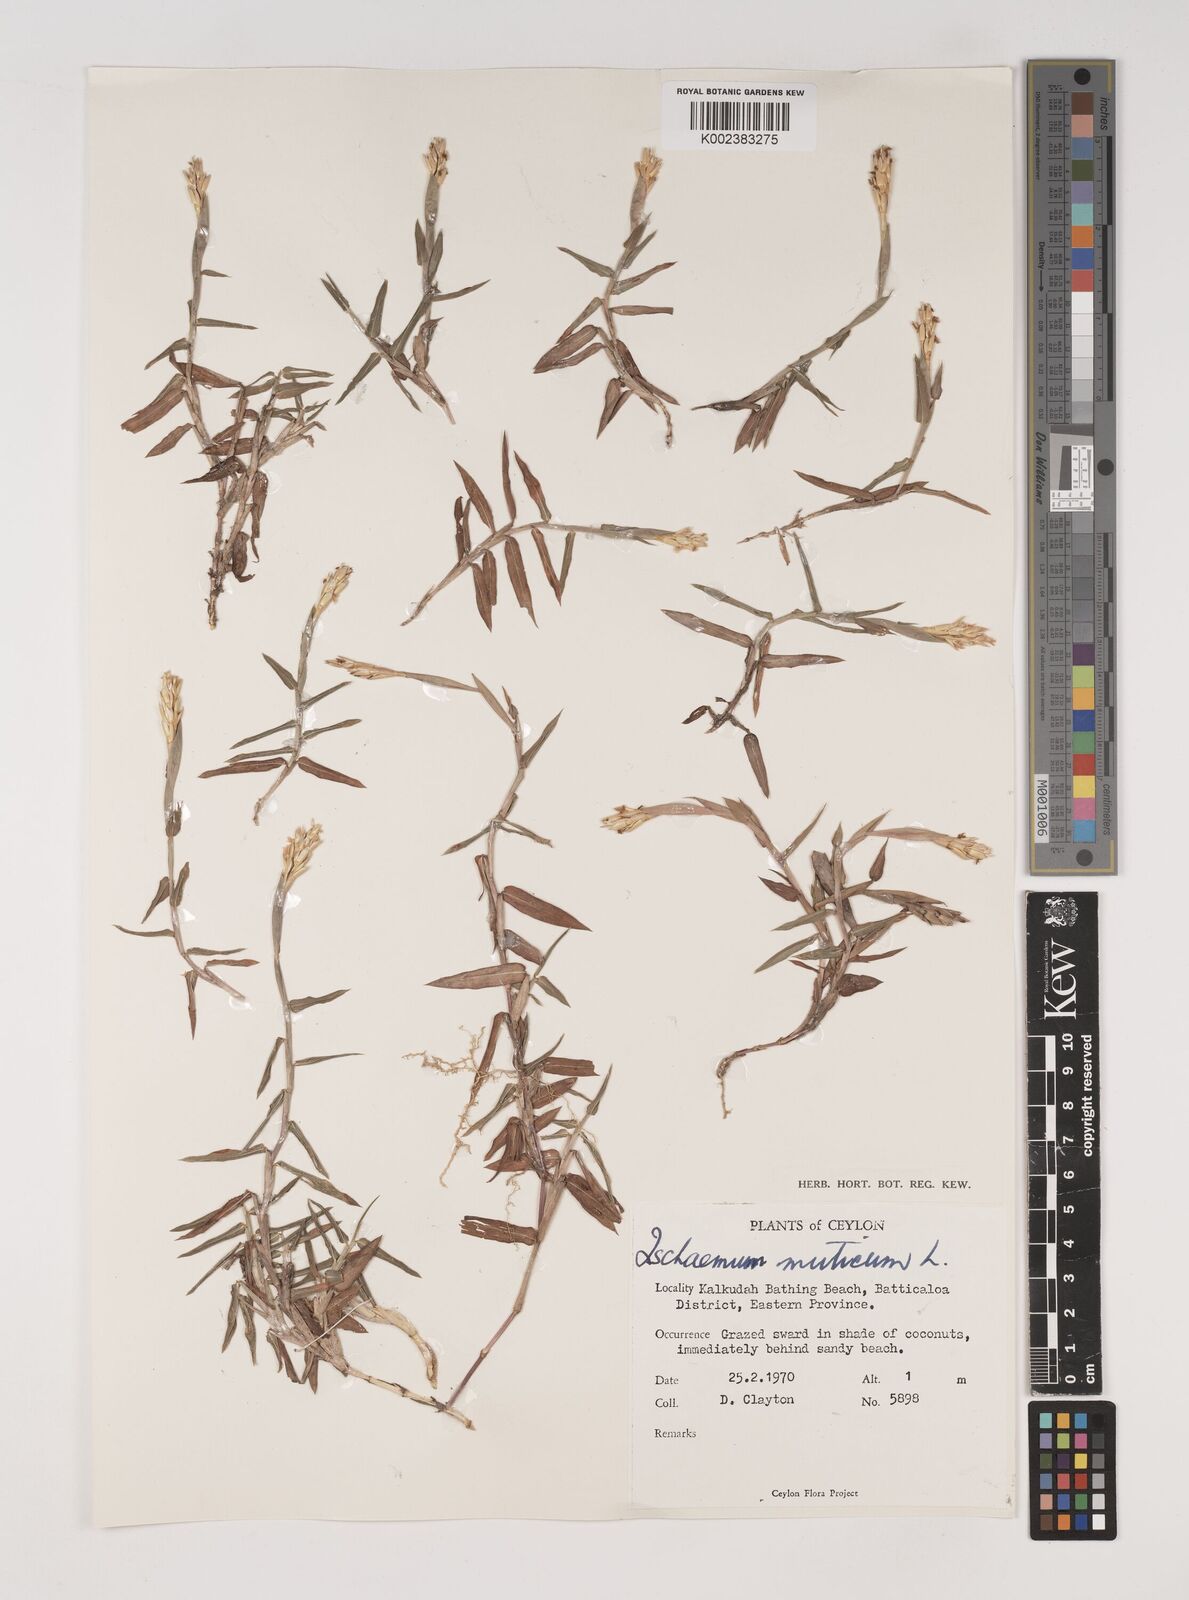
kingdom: Plantae
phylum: Tracheophyta
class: Liliopsida
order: Poales
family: Poaceae
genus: Ischaemum
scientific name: Ischaemum muticum
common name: Drought grass
